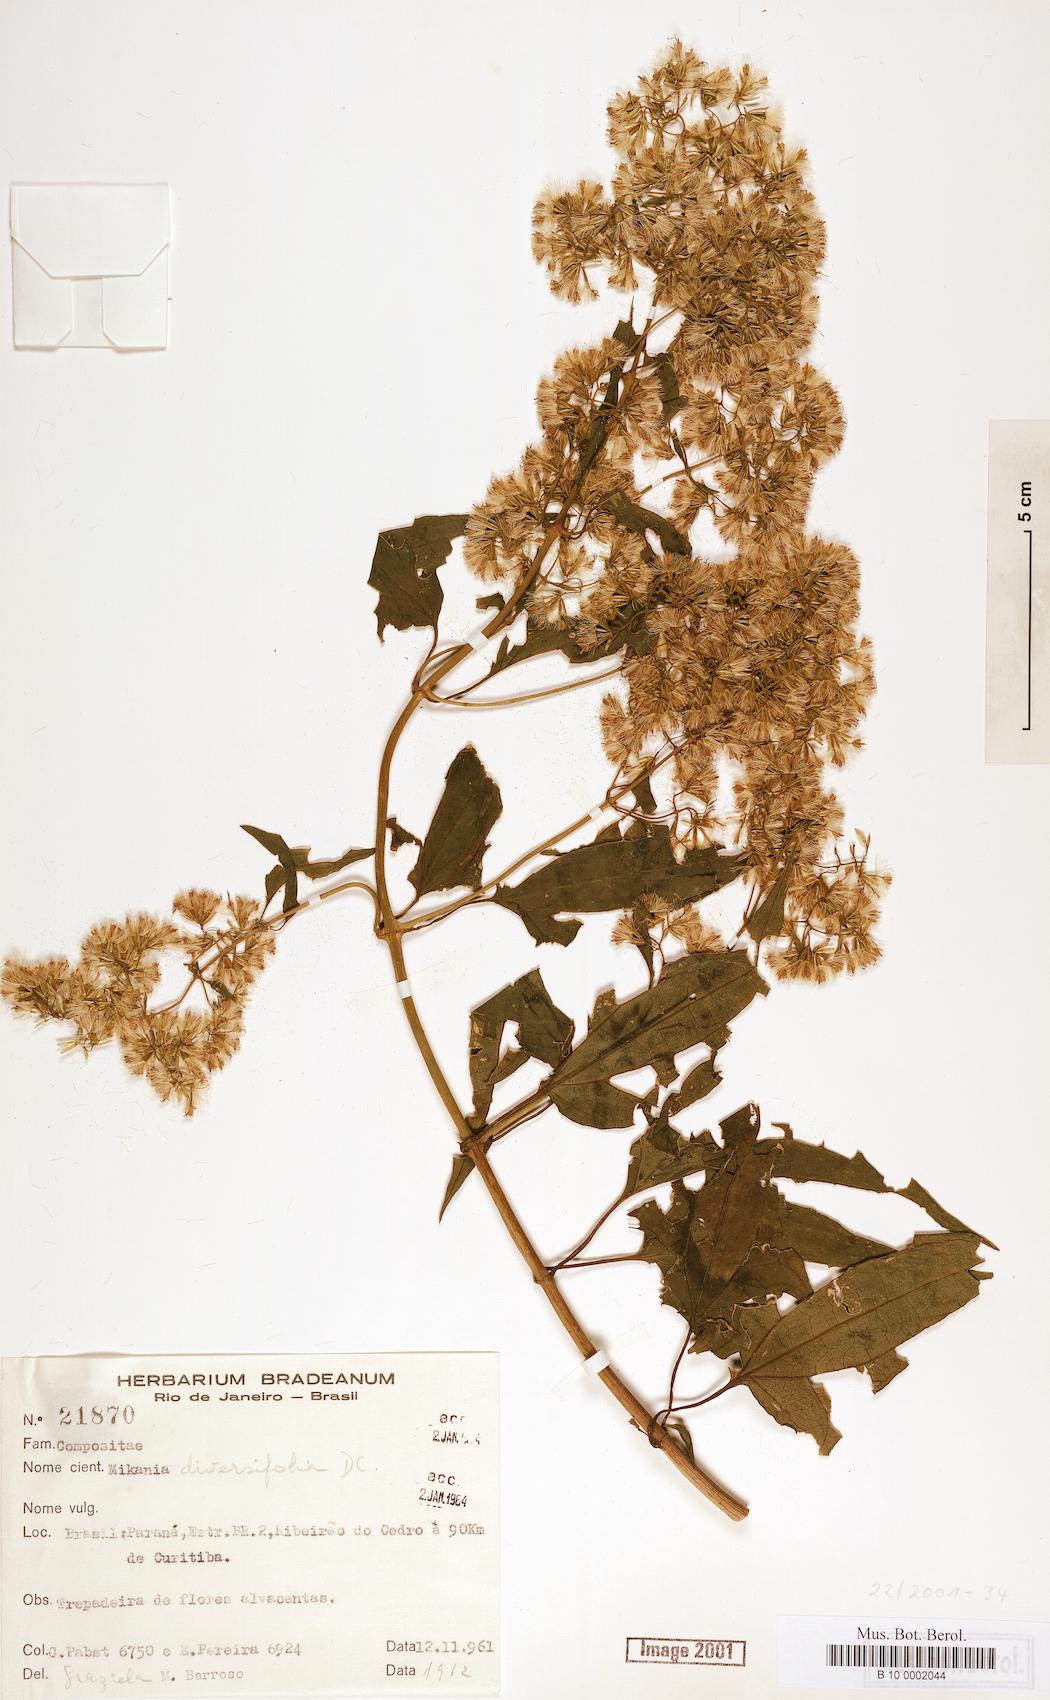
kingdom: Plantae
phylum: Tracheophyta
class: Magnoliopsida
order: Asterales
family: Asteraceae
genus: Mikania
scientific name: Mikania diversifolia
